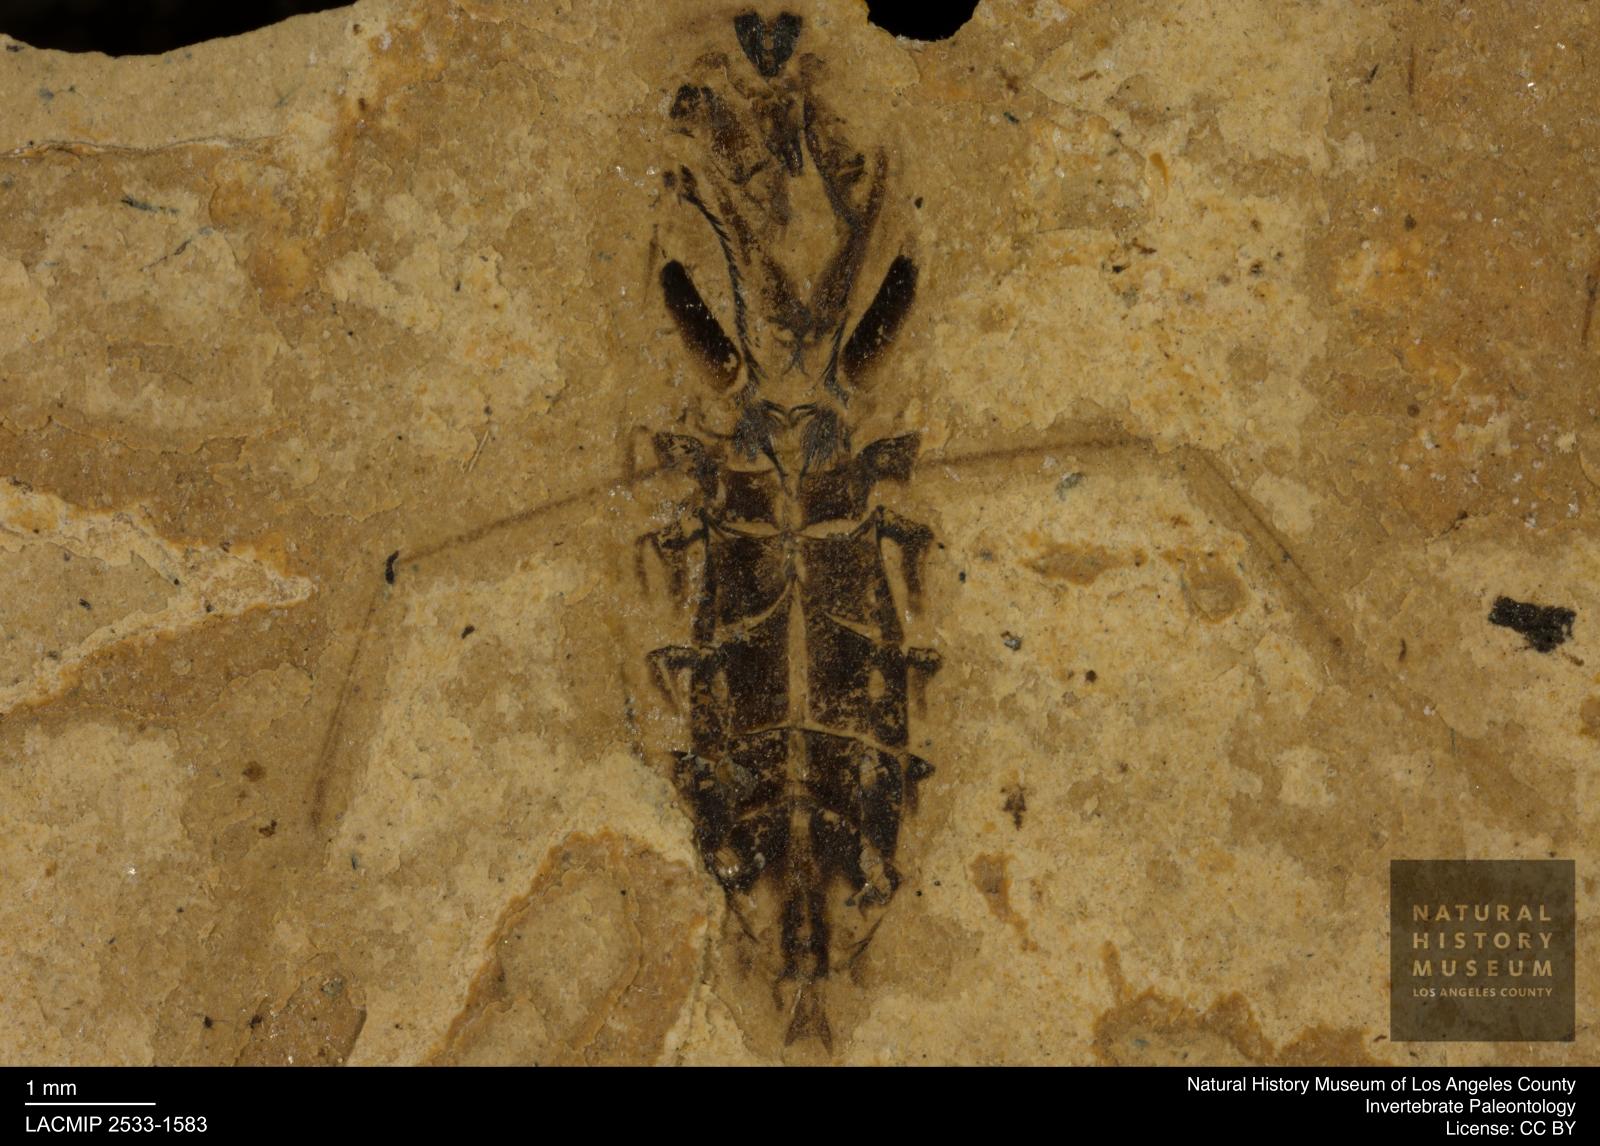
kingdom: Animalia
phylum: Arthropoda
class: Insecta
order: Hemiptera
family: Notonectidae
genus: Notonecta
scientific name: Notonecta
